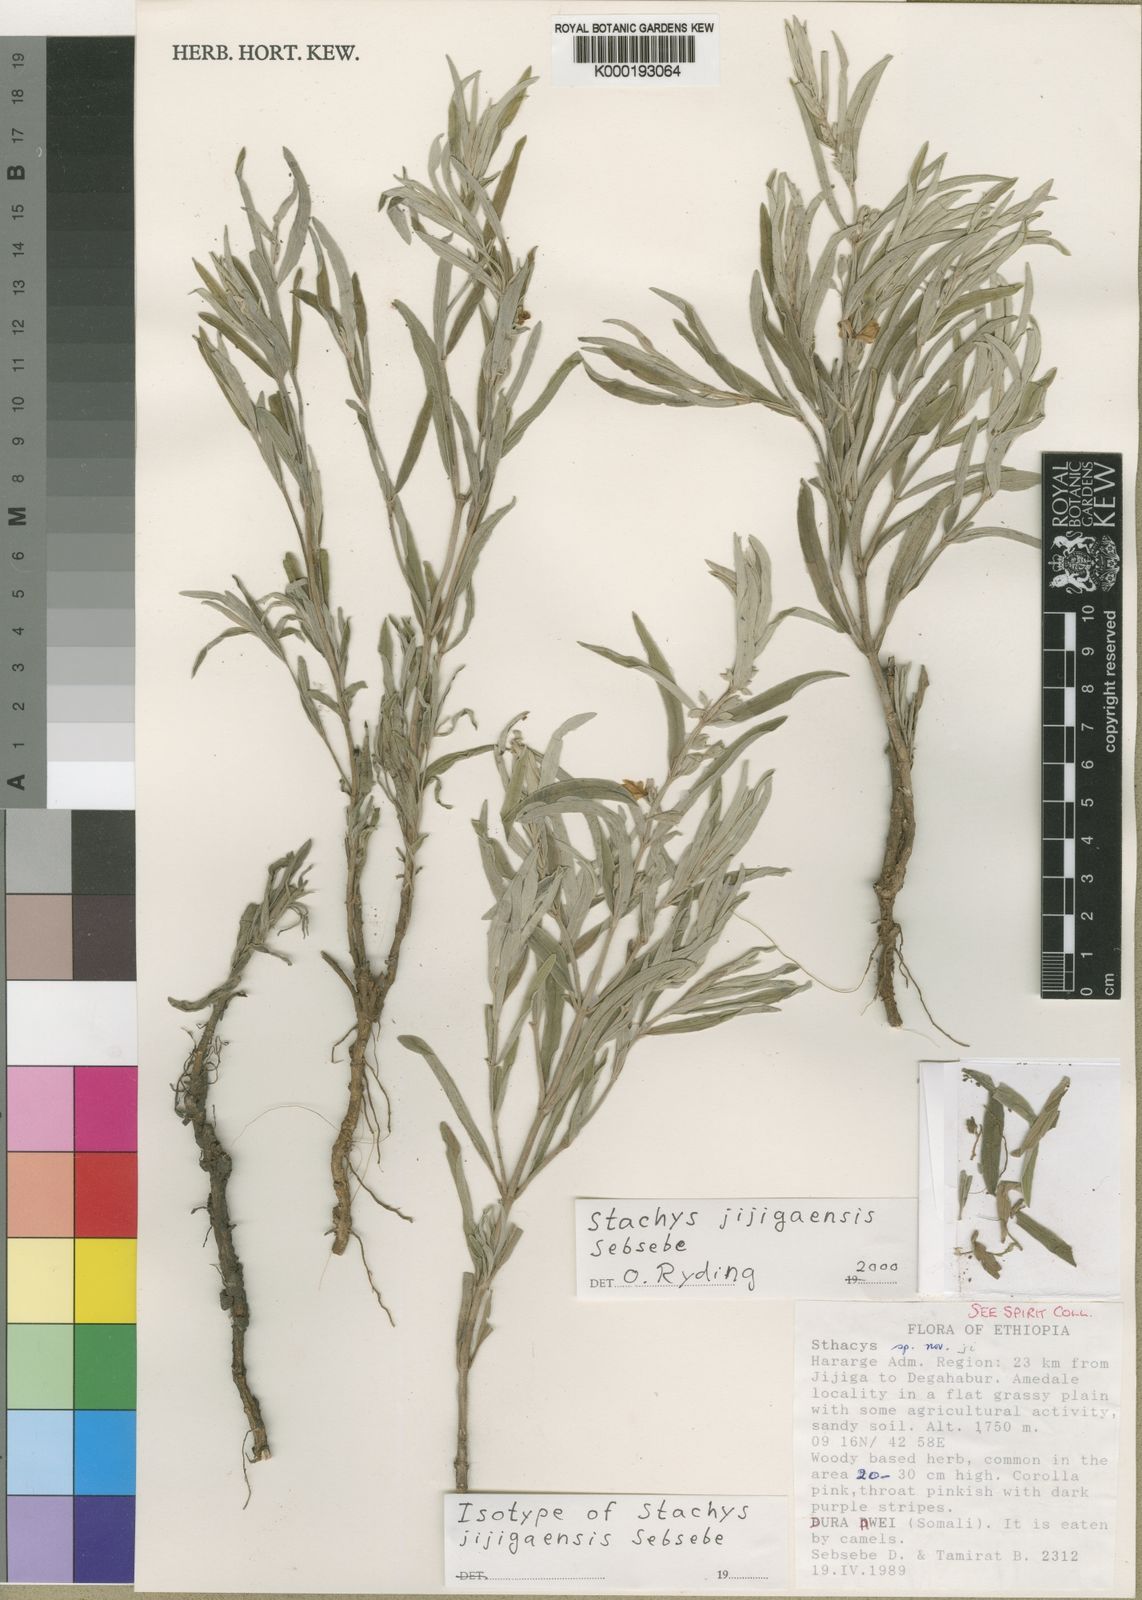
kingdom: Plantae
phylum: Tracheophyta
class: Magnoliopsida
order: Lamiales
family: Lamiaceae
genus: Stachys
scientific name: Stachys jijigaensis
